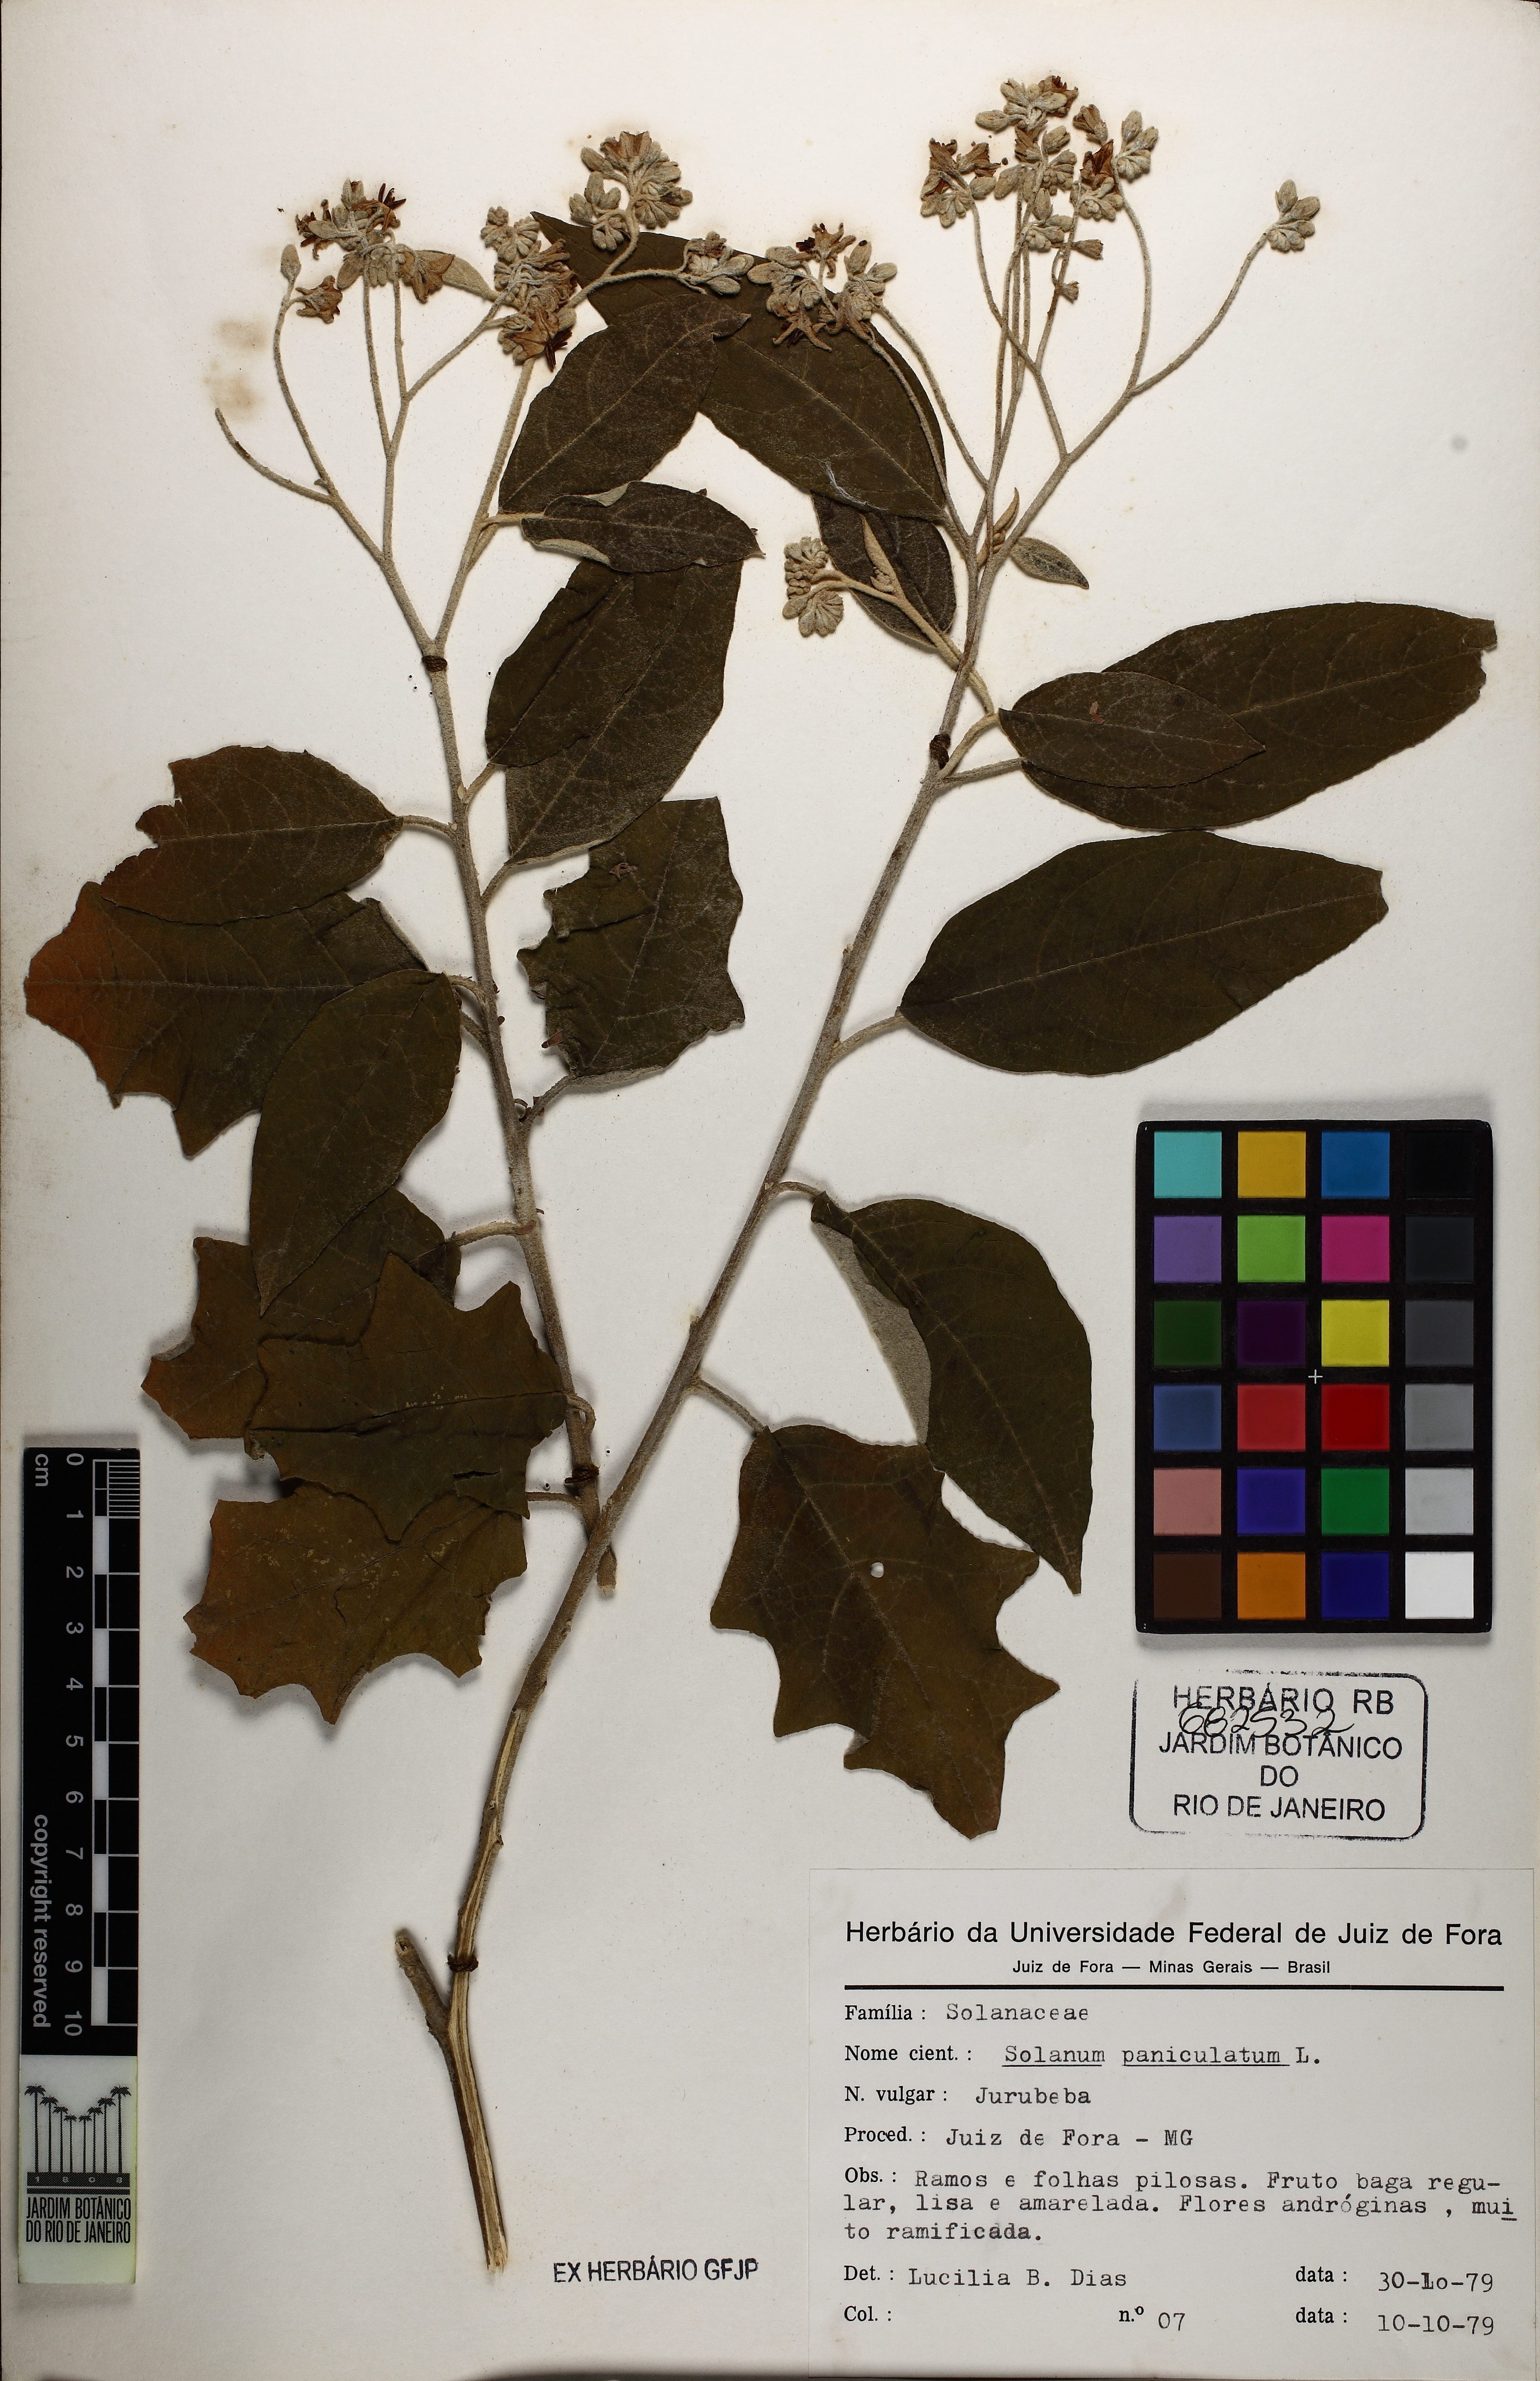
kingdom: Plantae
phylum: Tracheophyta
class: Magnoliopsida
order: Solanales
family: Solanaceae
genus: Solanum
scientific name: Solanum paniculatum
